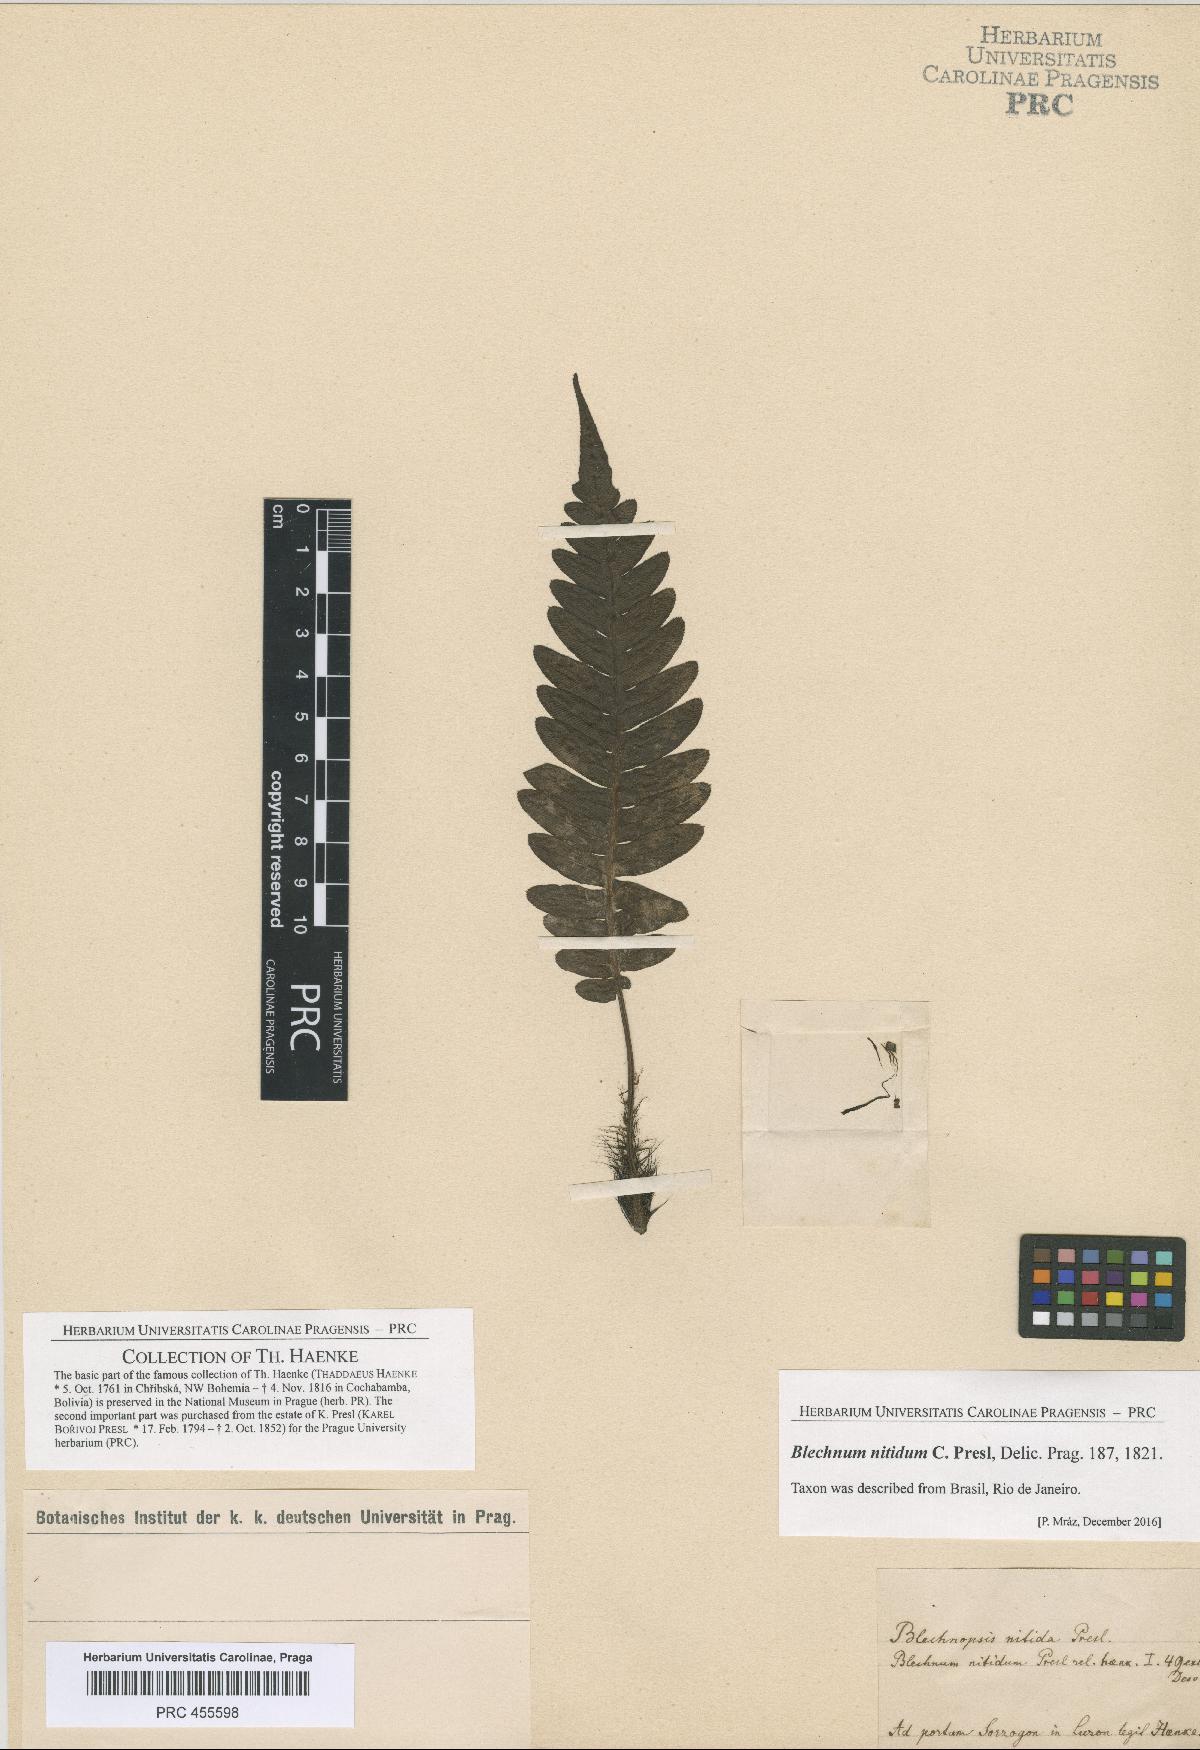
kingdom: Plantae
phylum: Tracheophyta
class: Polypodiopsida
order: Polypodiales
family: Blechnaceae
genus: Blechnum
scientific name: Blechnum
